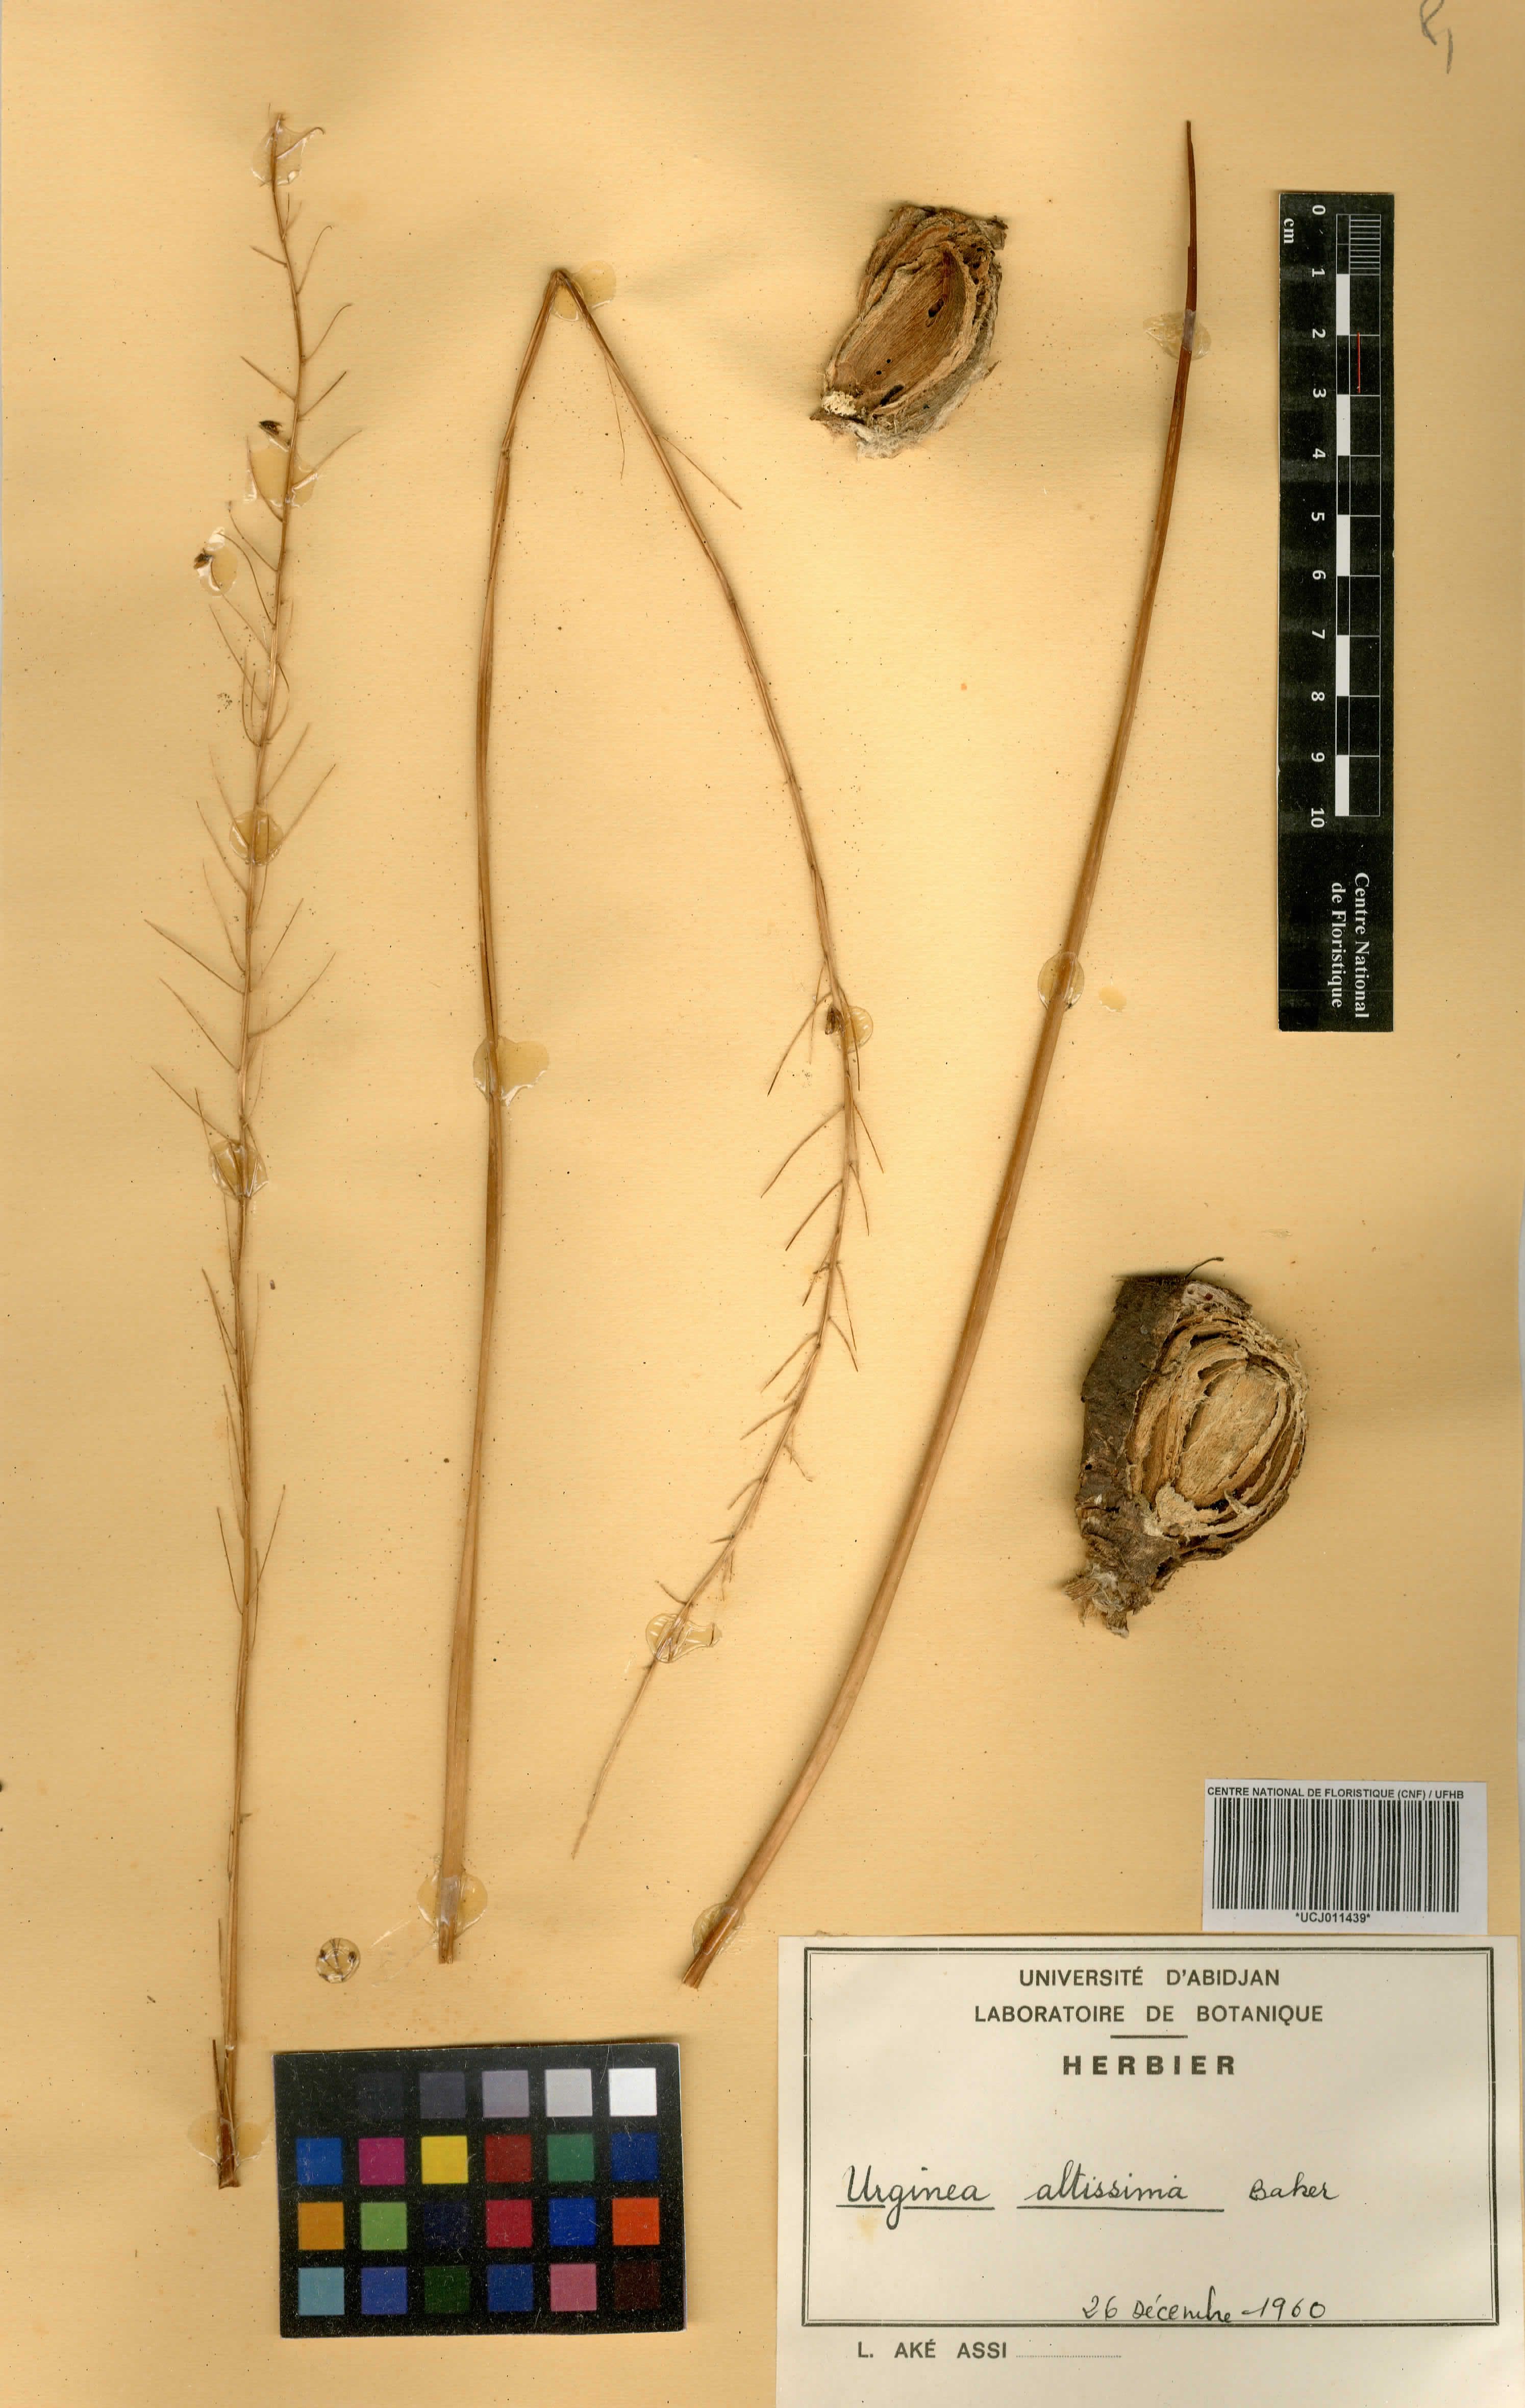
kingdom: Plantae
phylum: Tracheophyta
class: Liliopsida
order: Asparagales
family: Asparagaceae
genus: Drimia
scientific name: Drimia altissima
